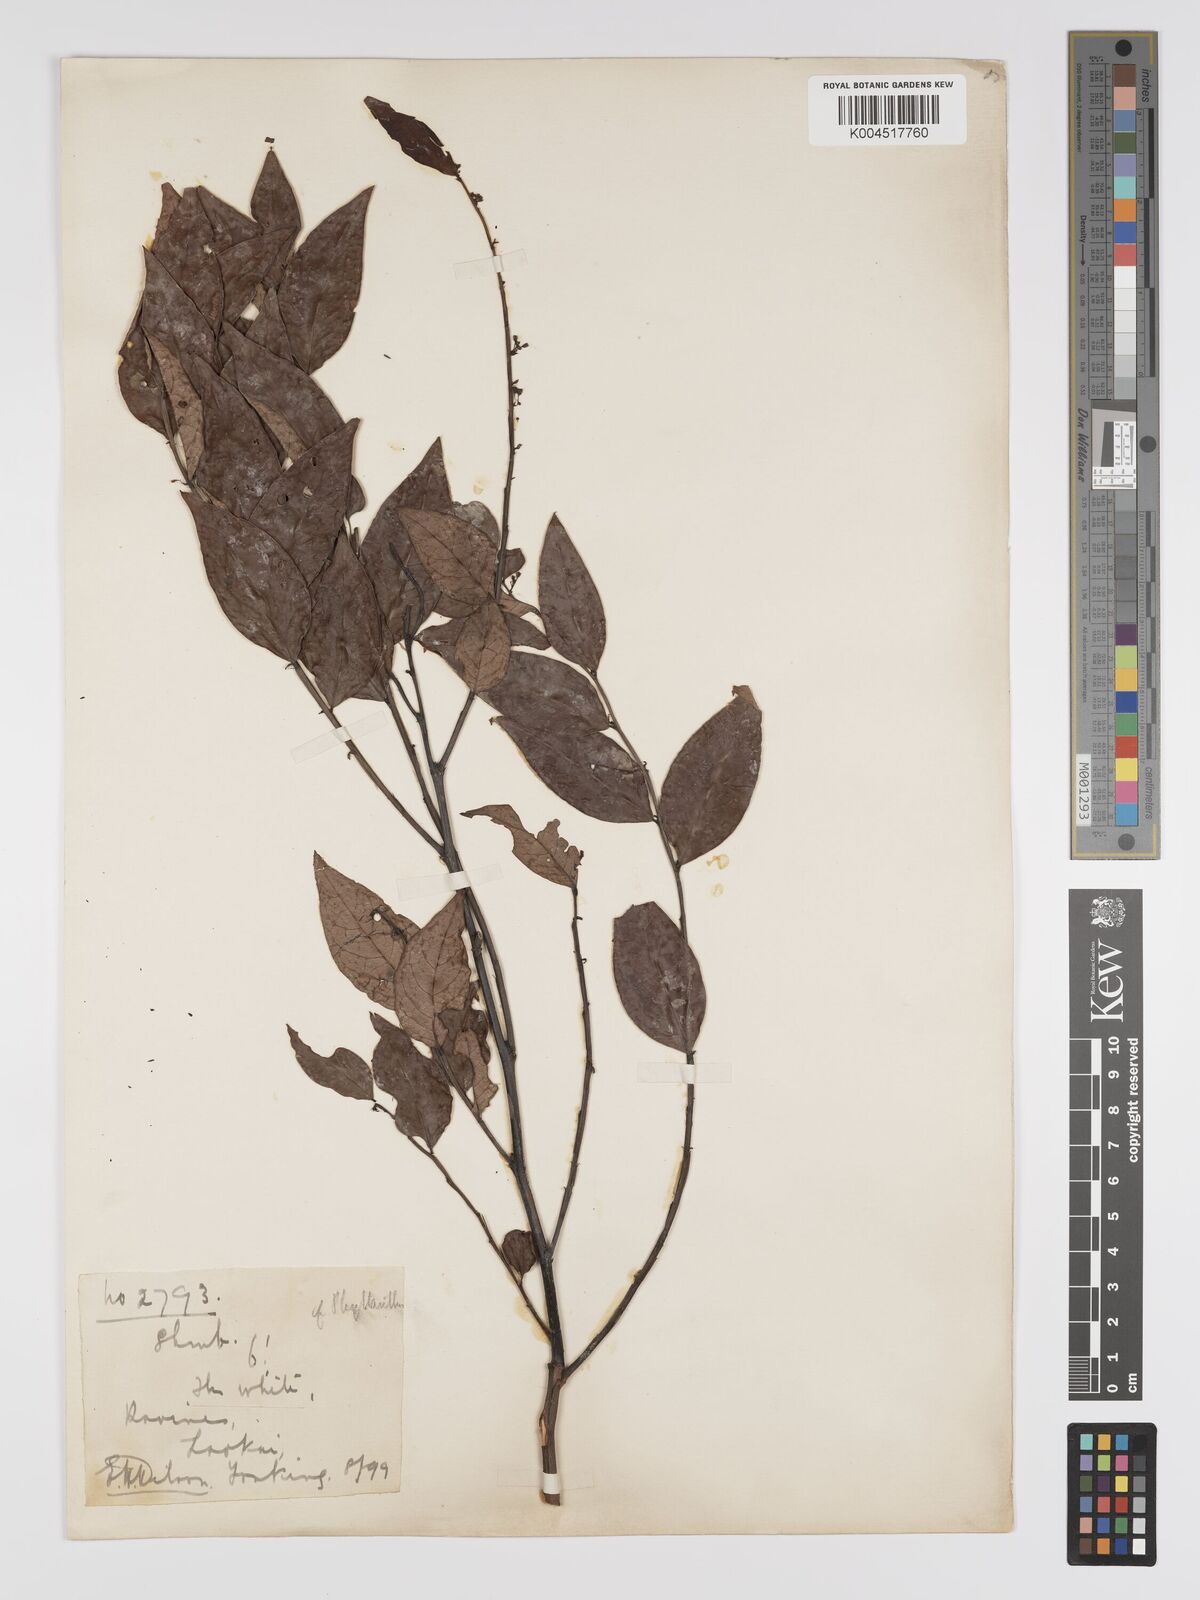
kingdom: Plantae
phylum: Tracheophyta
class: Magnoliopsida
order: Malpighiales
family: Phyllanthaceae
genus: Phyllanthus
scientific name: Phyllanthus pachyphyllus
